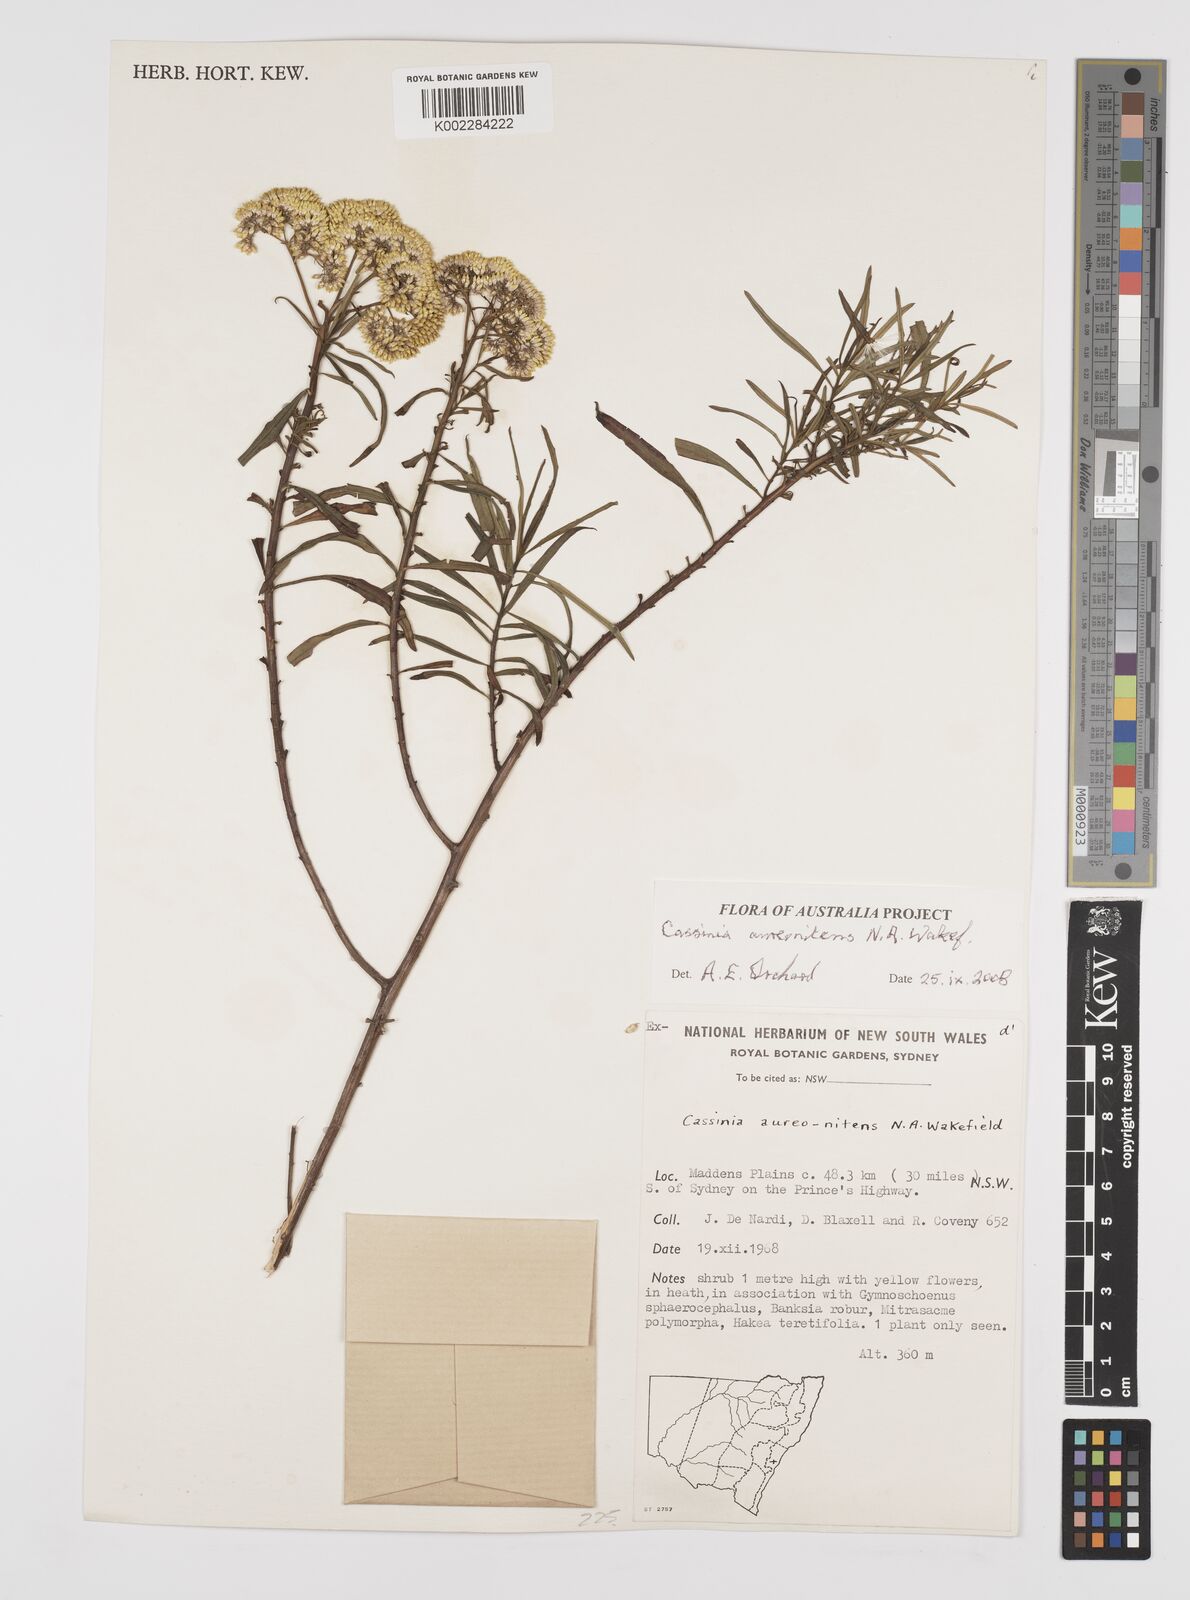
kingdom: Plantae
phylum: Tracheophyta
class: Magnoliopsida
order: Asterales
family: Asteraceae
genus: Cassinia
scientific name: Cassinia aureonitens
